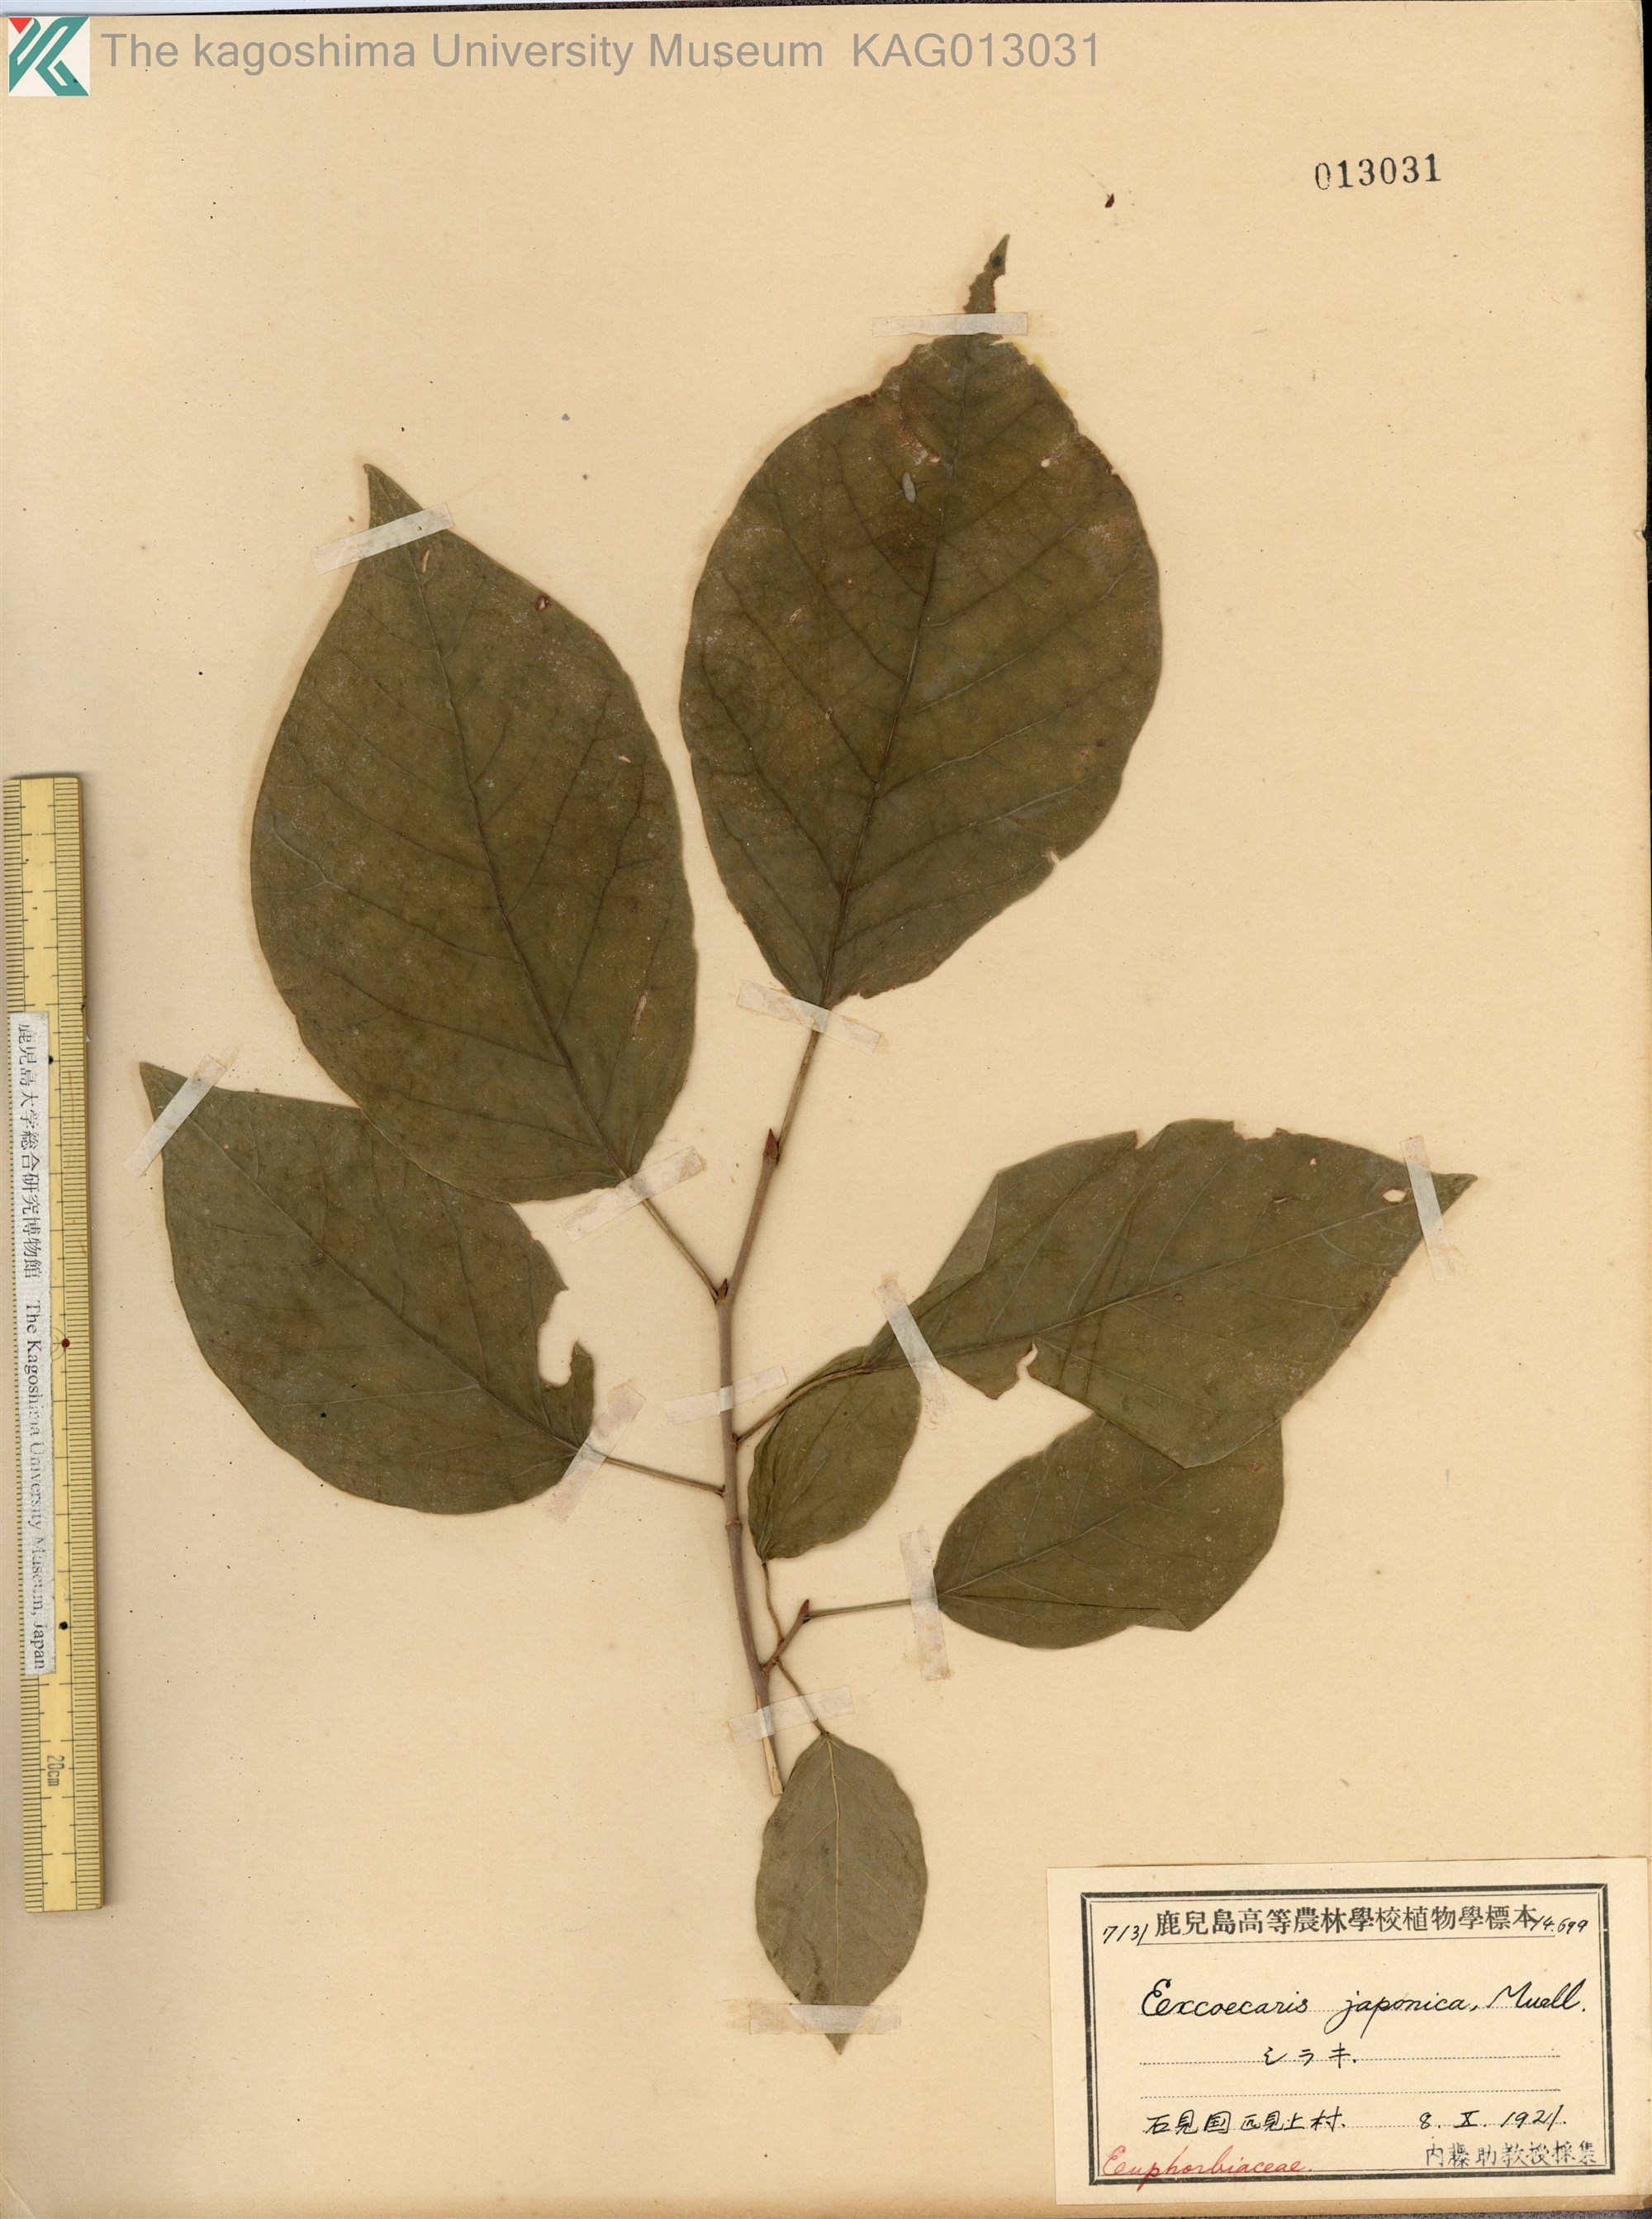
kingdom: Plantae
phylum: Tracheophyta
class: Magnoliopsida
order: Malpighiales
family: Euphorbiaceae
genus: Neoshirakia
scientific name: Neoshirakia japonica
